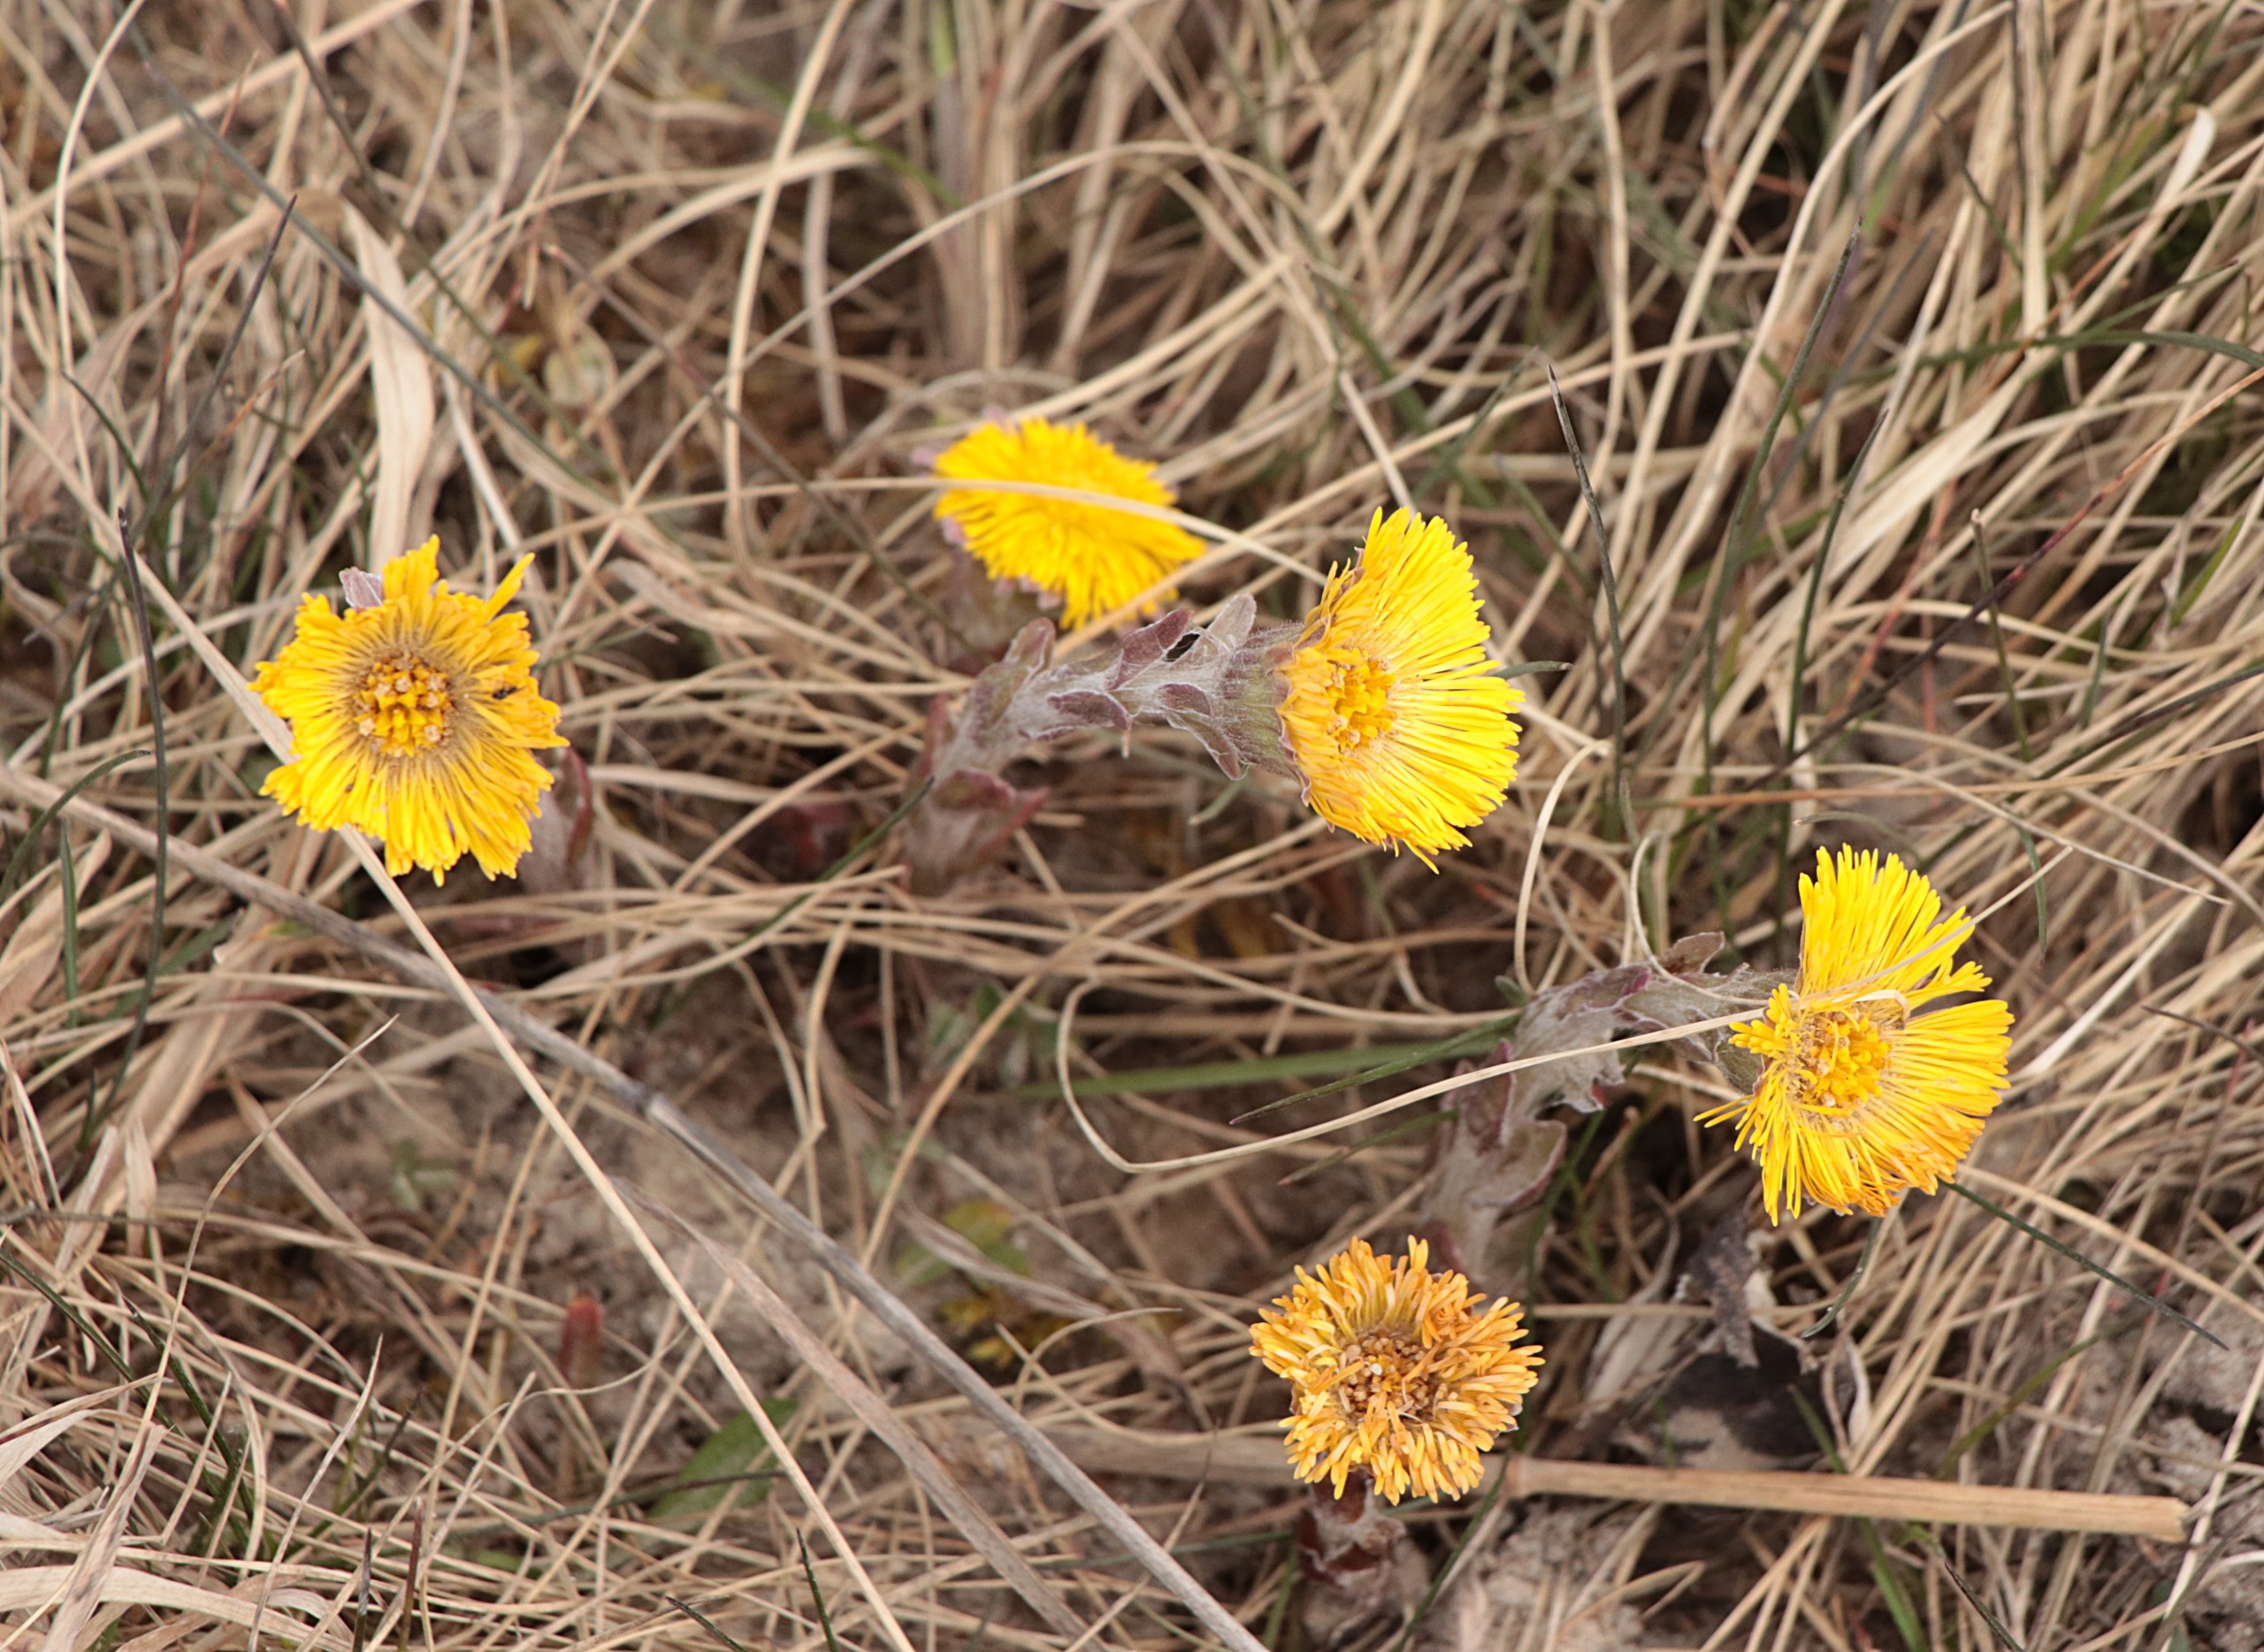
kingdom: Plantae
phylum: Tracheophyta
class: Magnoliopsida
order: Asterales
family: Asteraceae
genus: Tussilago
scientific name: Tussilago farfara
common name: Følfod
